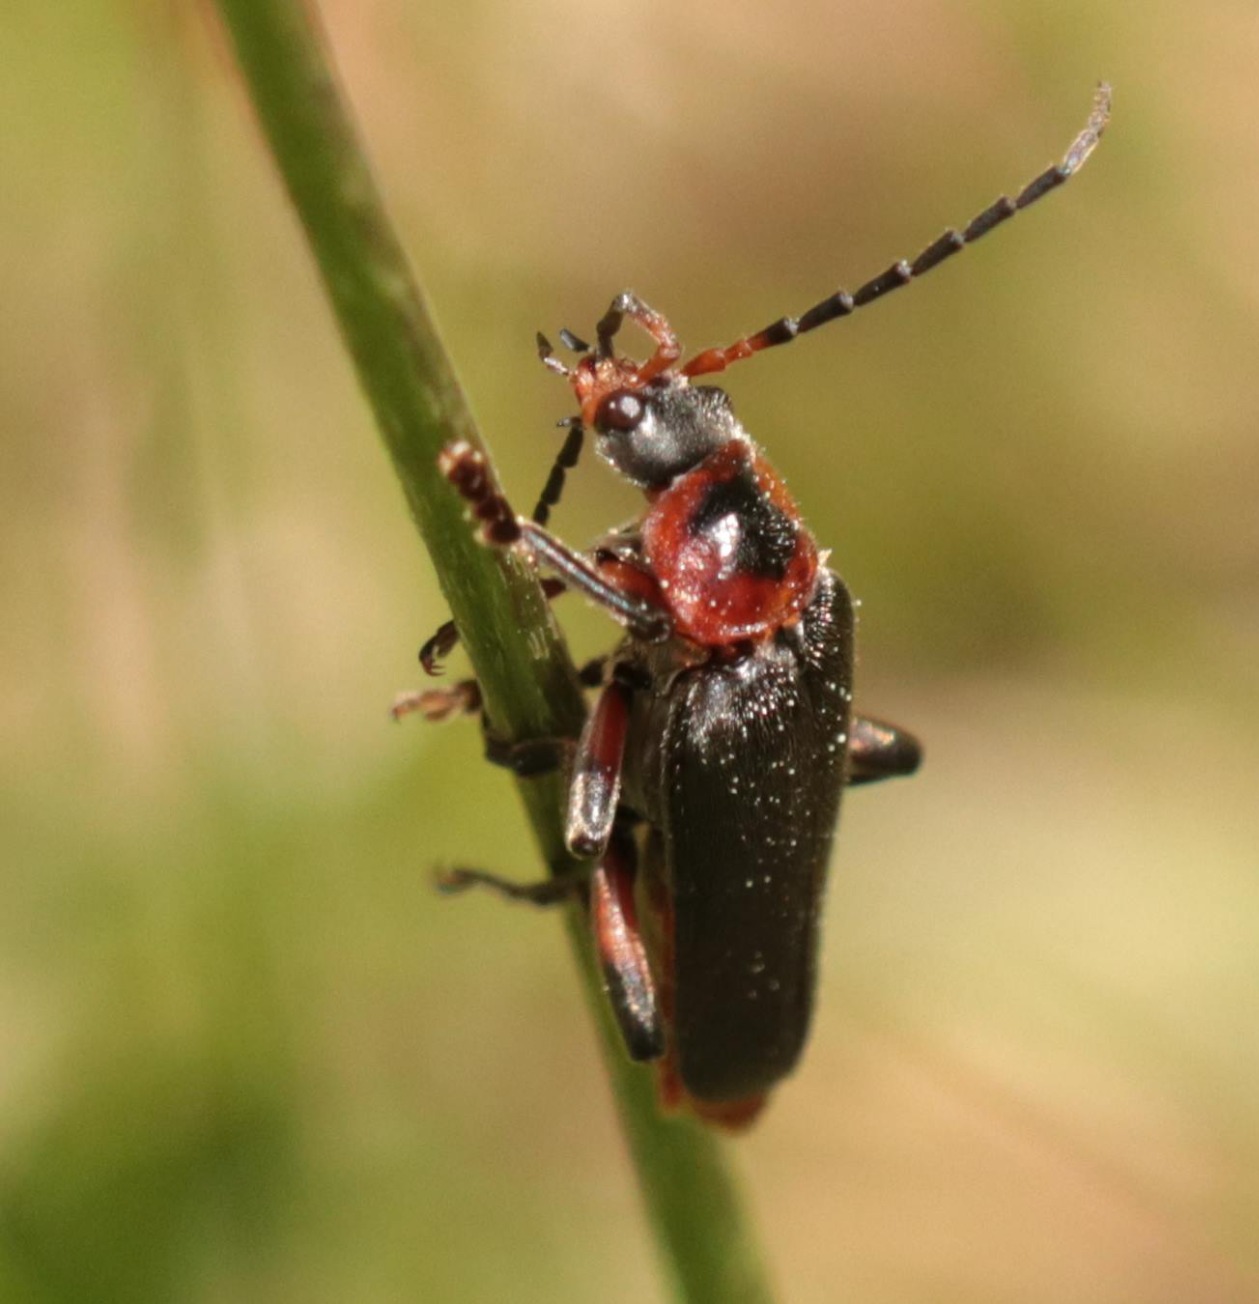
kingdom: Animalia
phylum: Arthropoda
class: Insecta
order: Coleoptera
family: Cantharidae
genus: Cantharis
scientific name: Cantharis rustica
